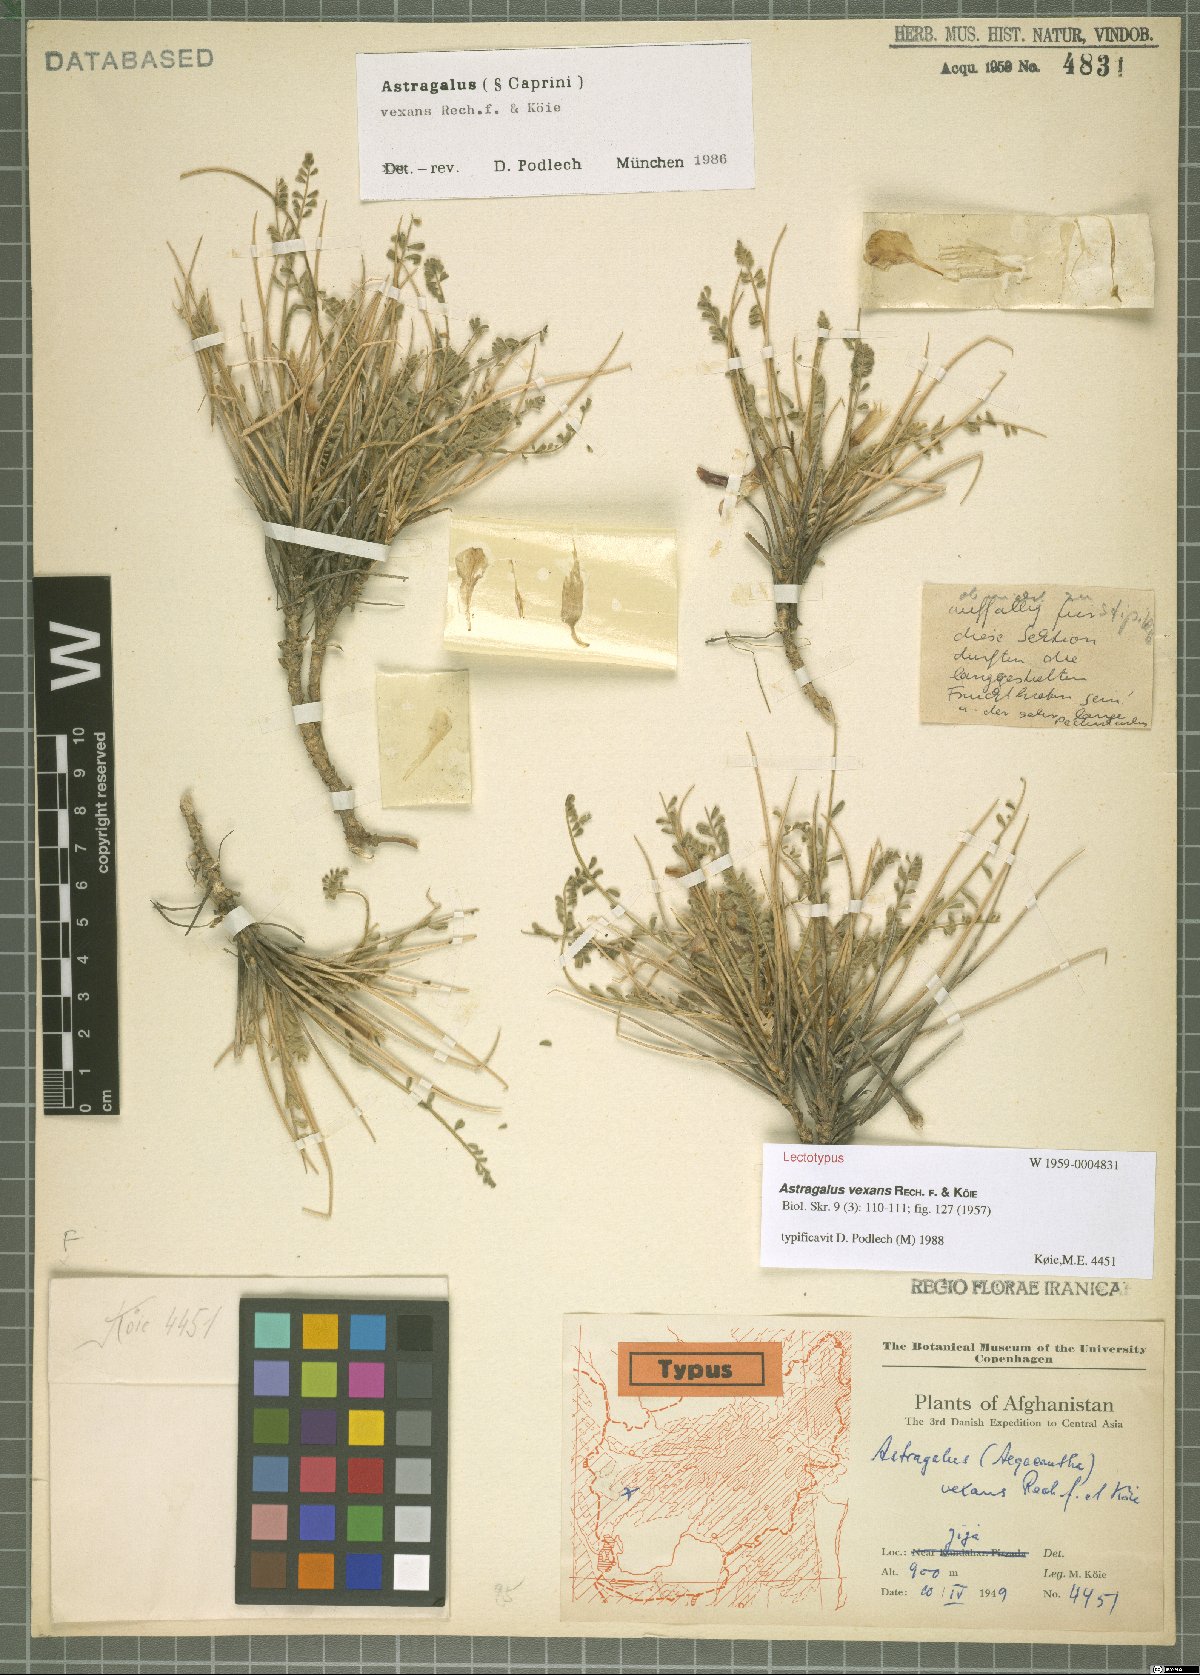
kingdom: Plantae
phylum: Tracheophyta
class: Magnoliopsida
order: Fabales
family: Fabaceae
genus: Astragalus
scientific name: Astragalus vexans
